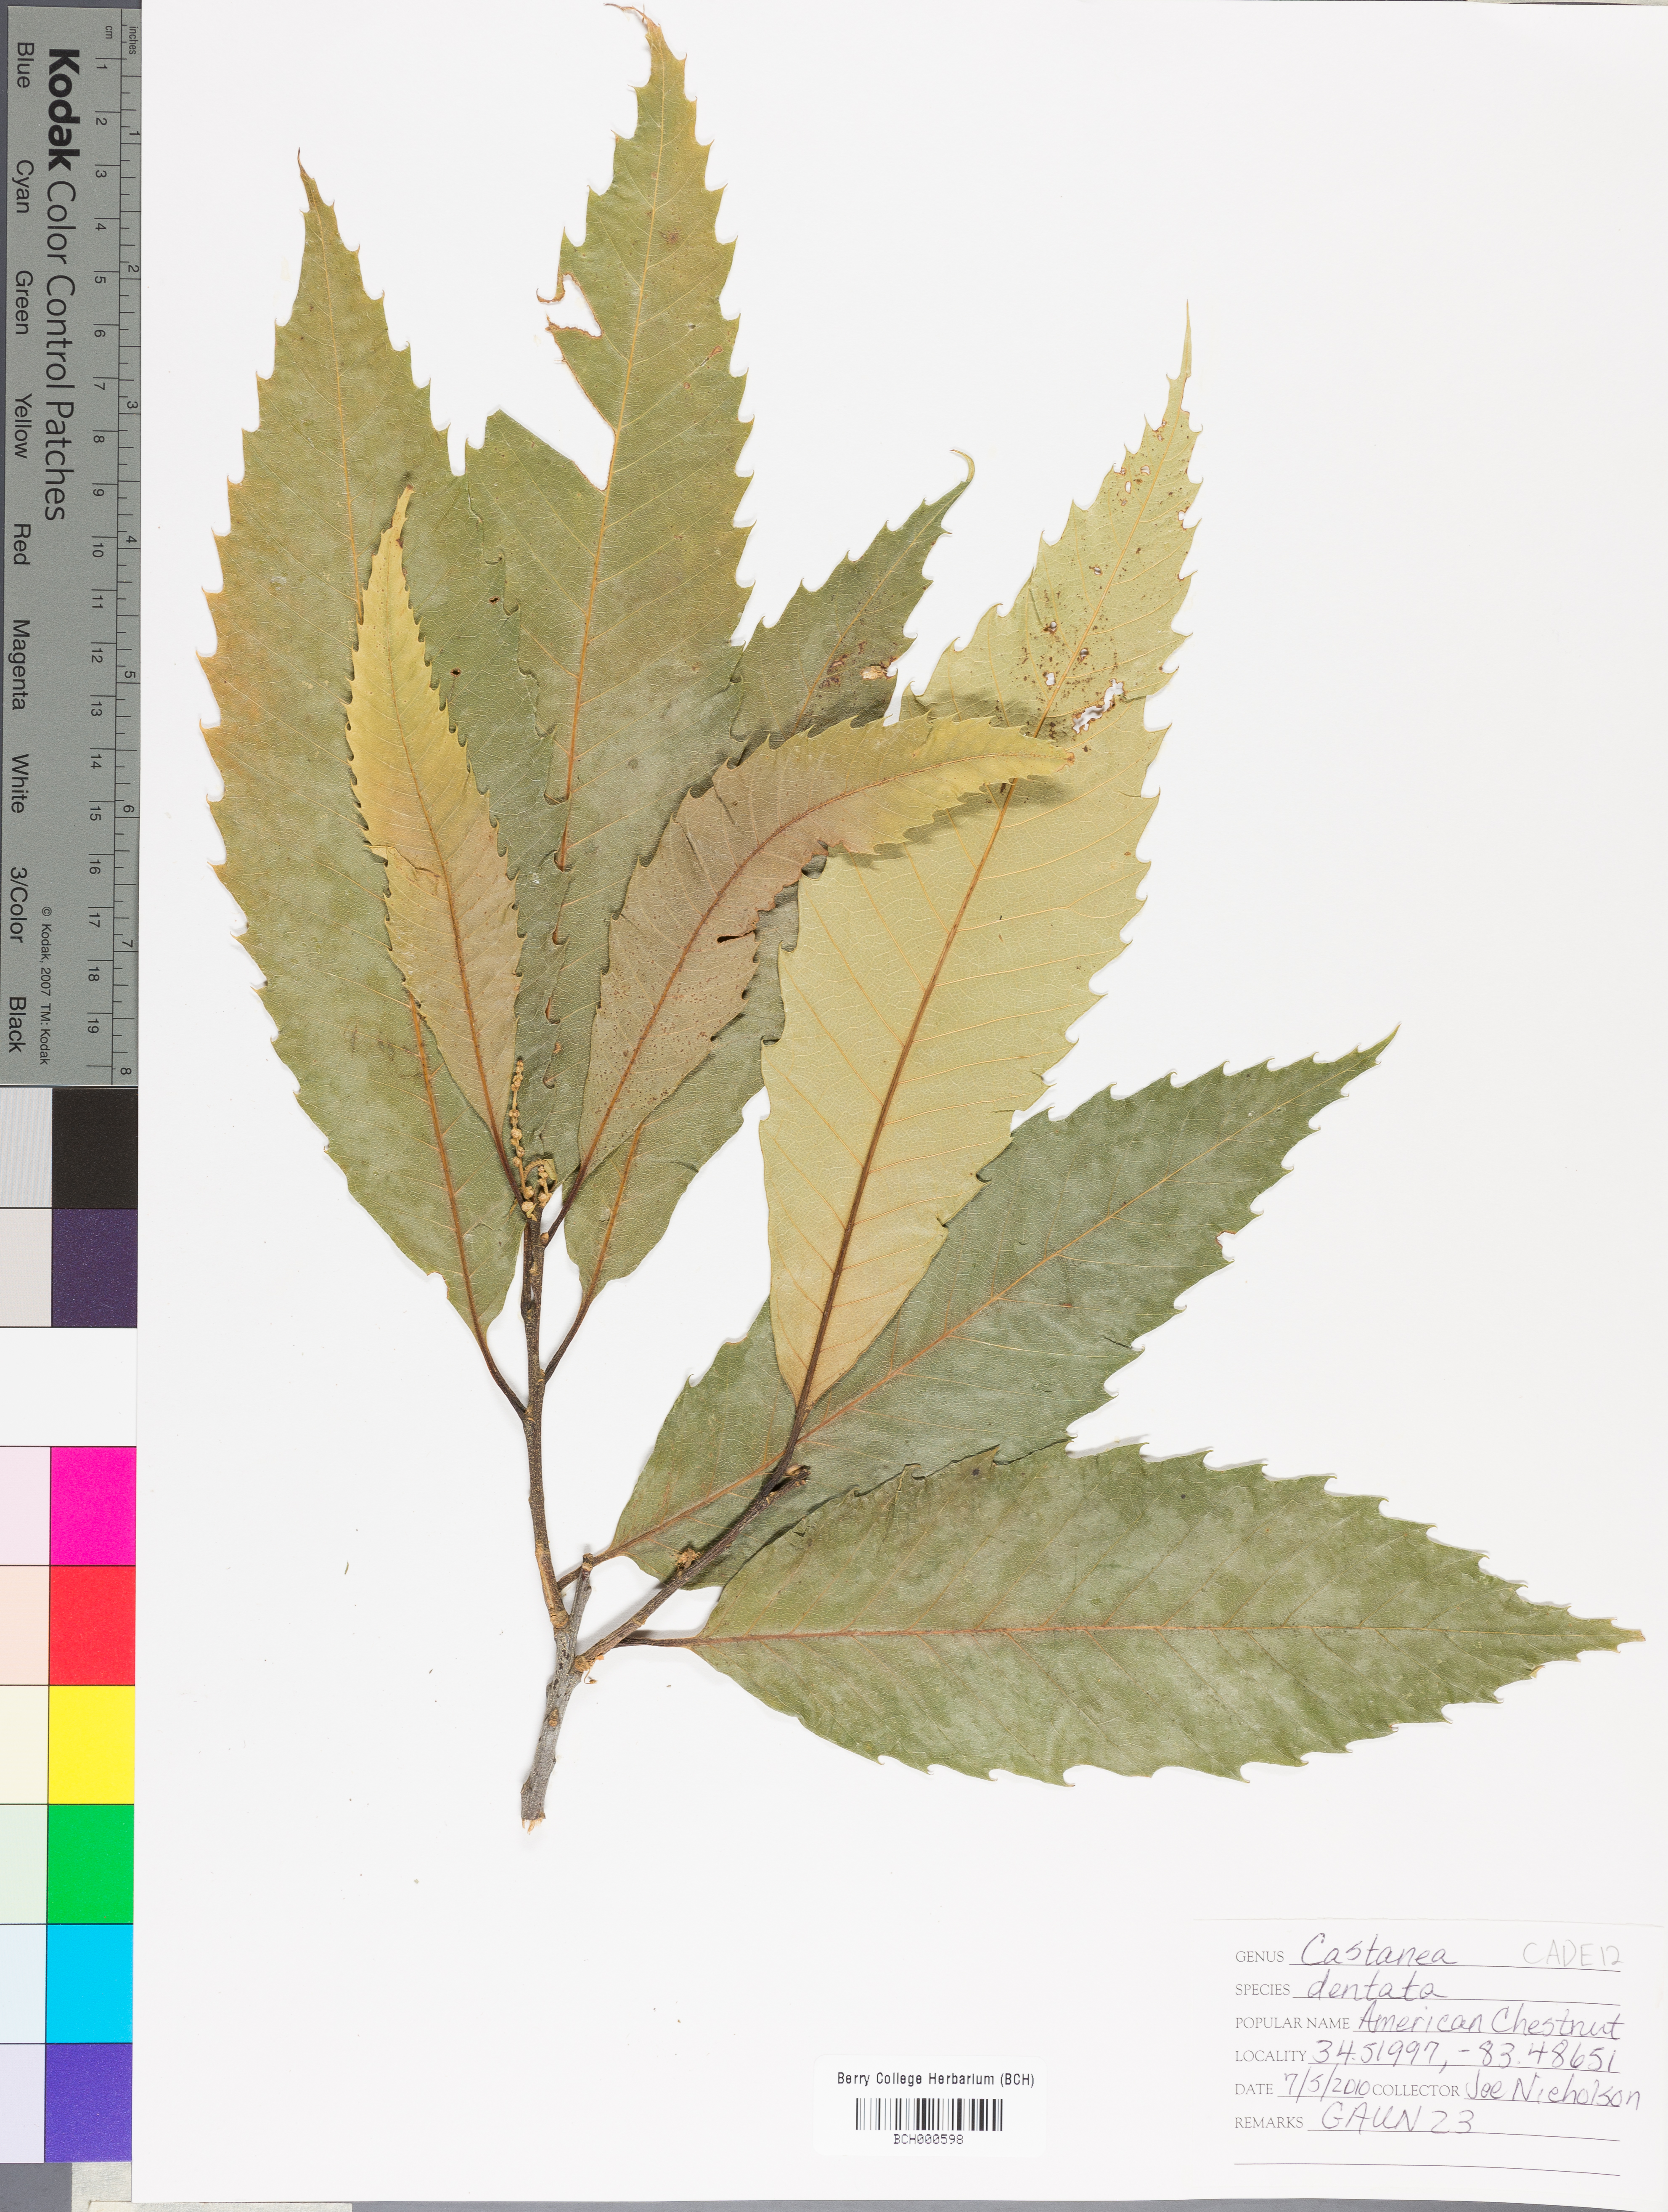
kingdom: Plantae
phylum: Tracheophyta
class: Magnoliopsida
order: Fagales
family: Fagaceae
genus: Castanea
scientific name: Castanea dentata
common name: American chestnut
